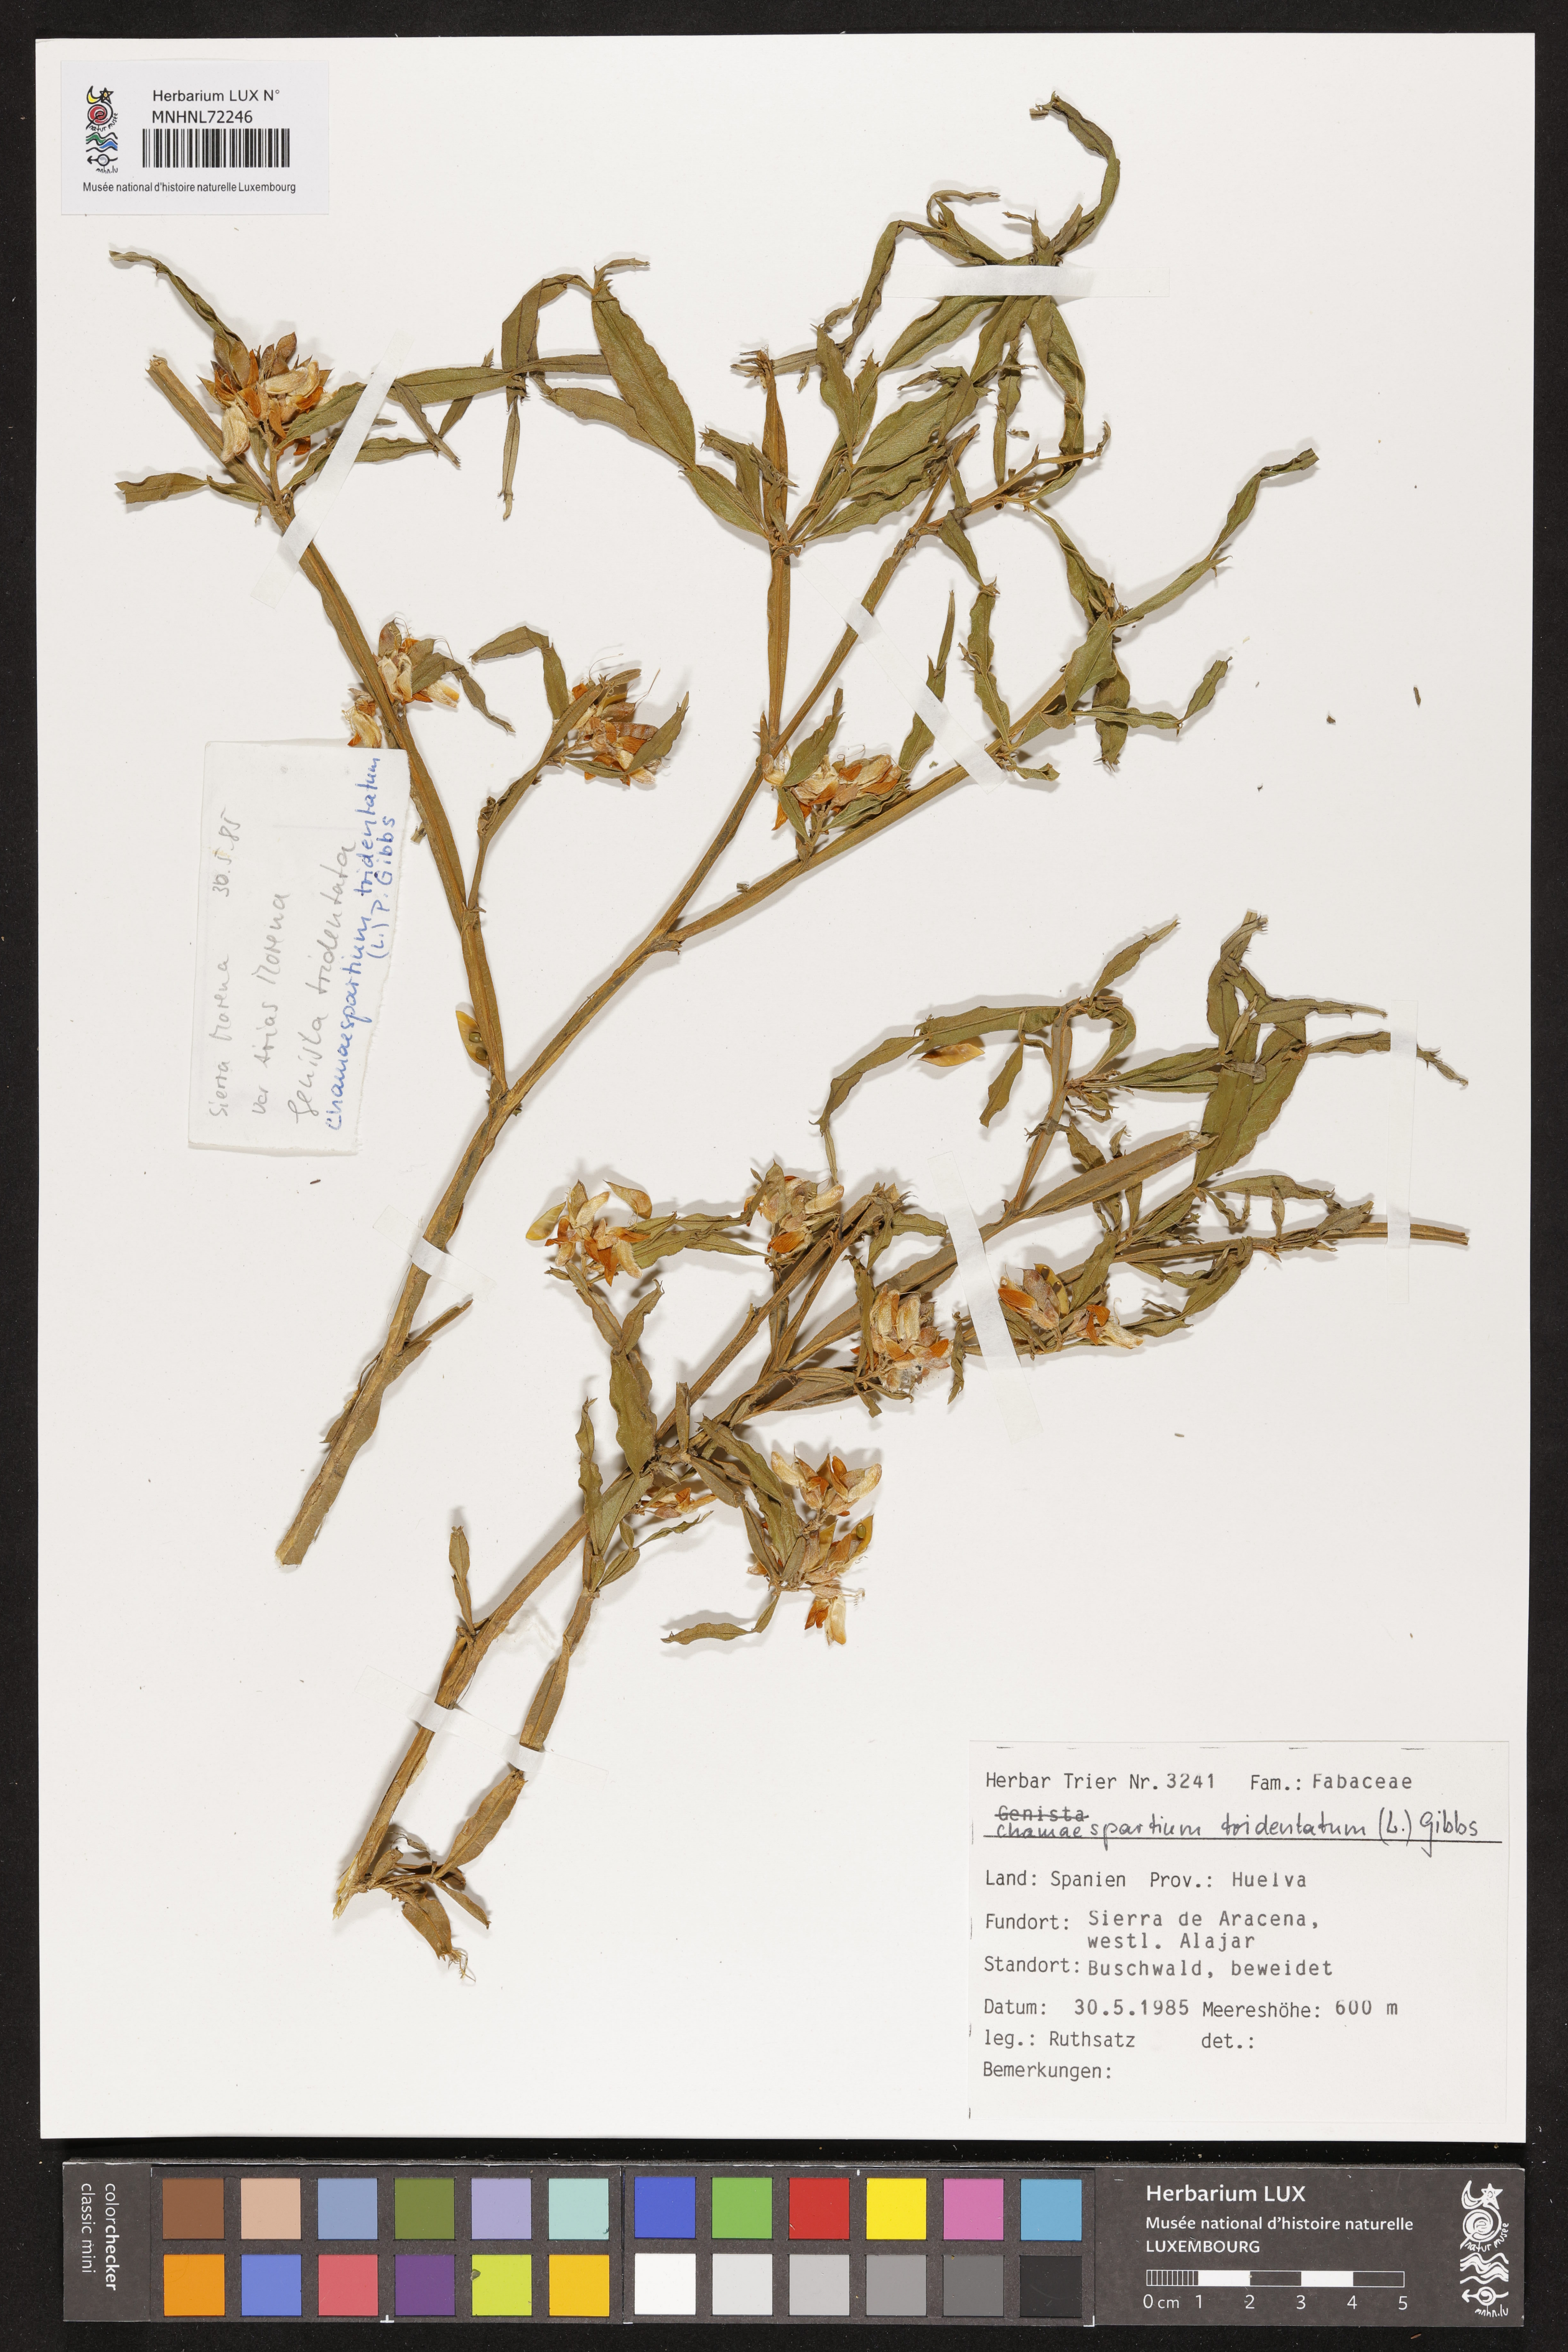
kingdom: Plantae
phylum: Tracheophyta
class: Magnoliopsida
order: Fabales
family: Fabaceae
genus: Genista
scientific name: Genista tridentata
